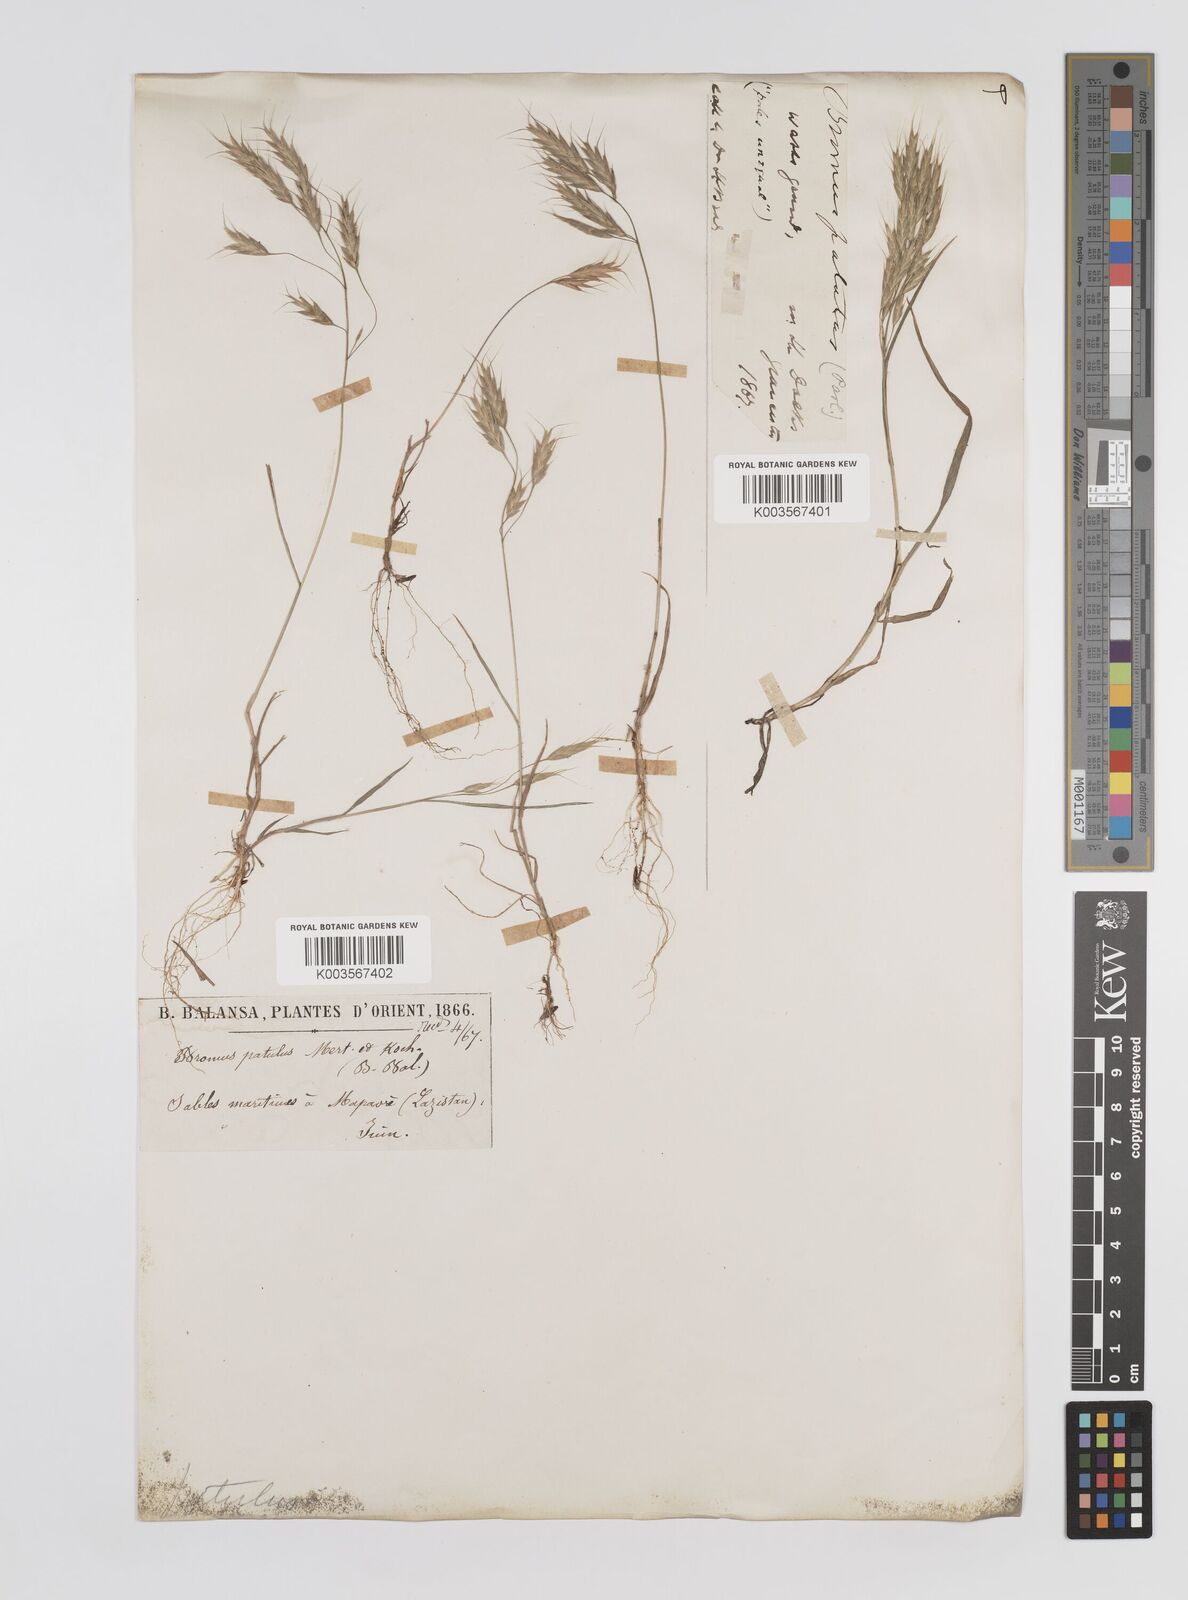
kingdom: Plantae
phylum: Tracheophyta
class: Liliopsida
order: Poales
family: Poaceae
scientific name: Poaceae
